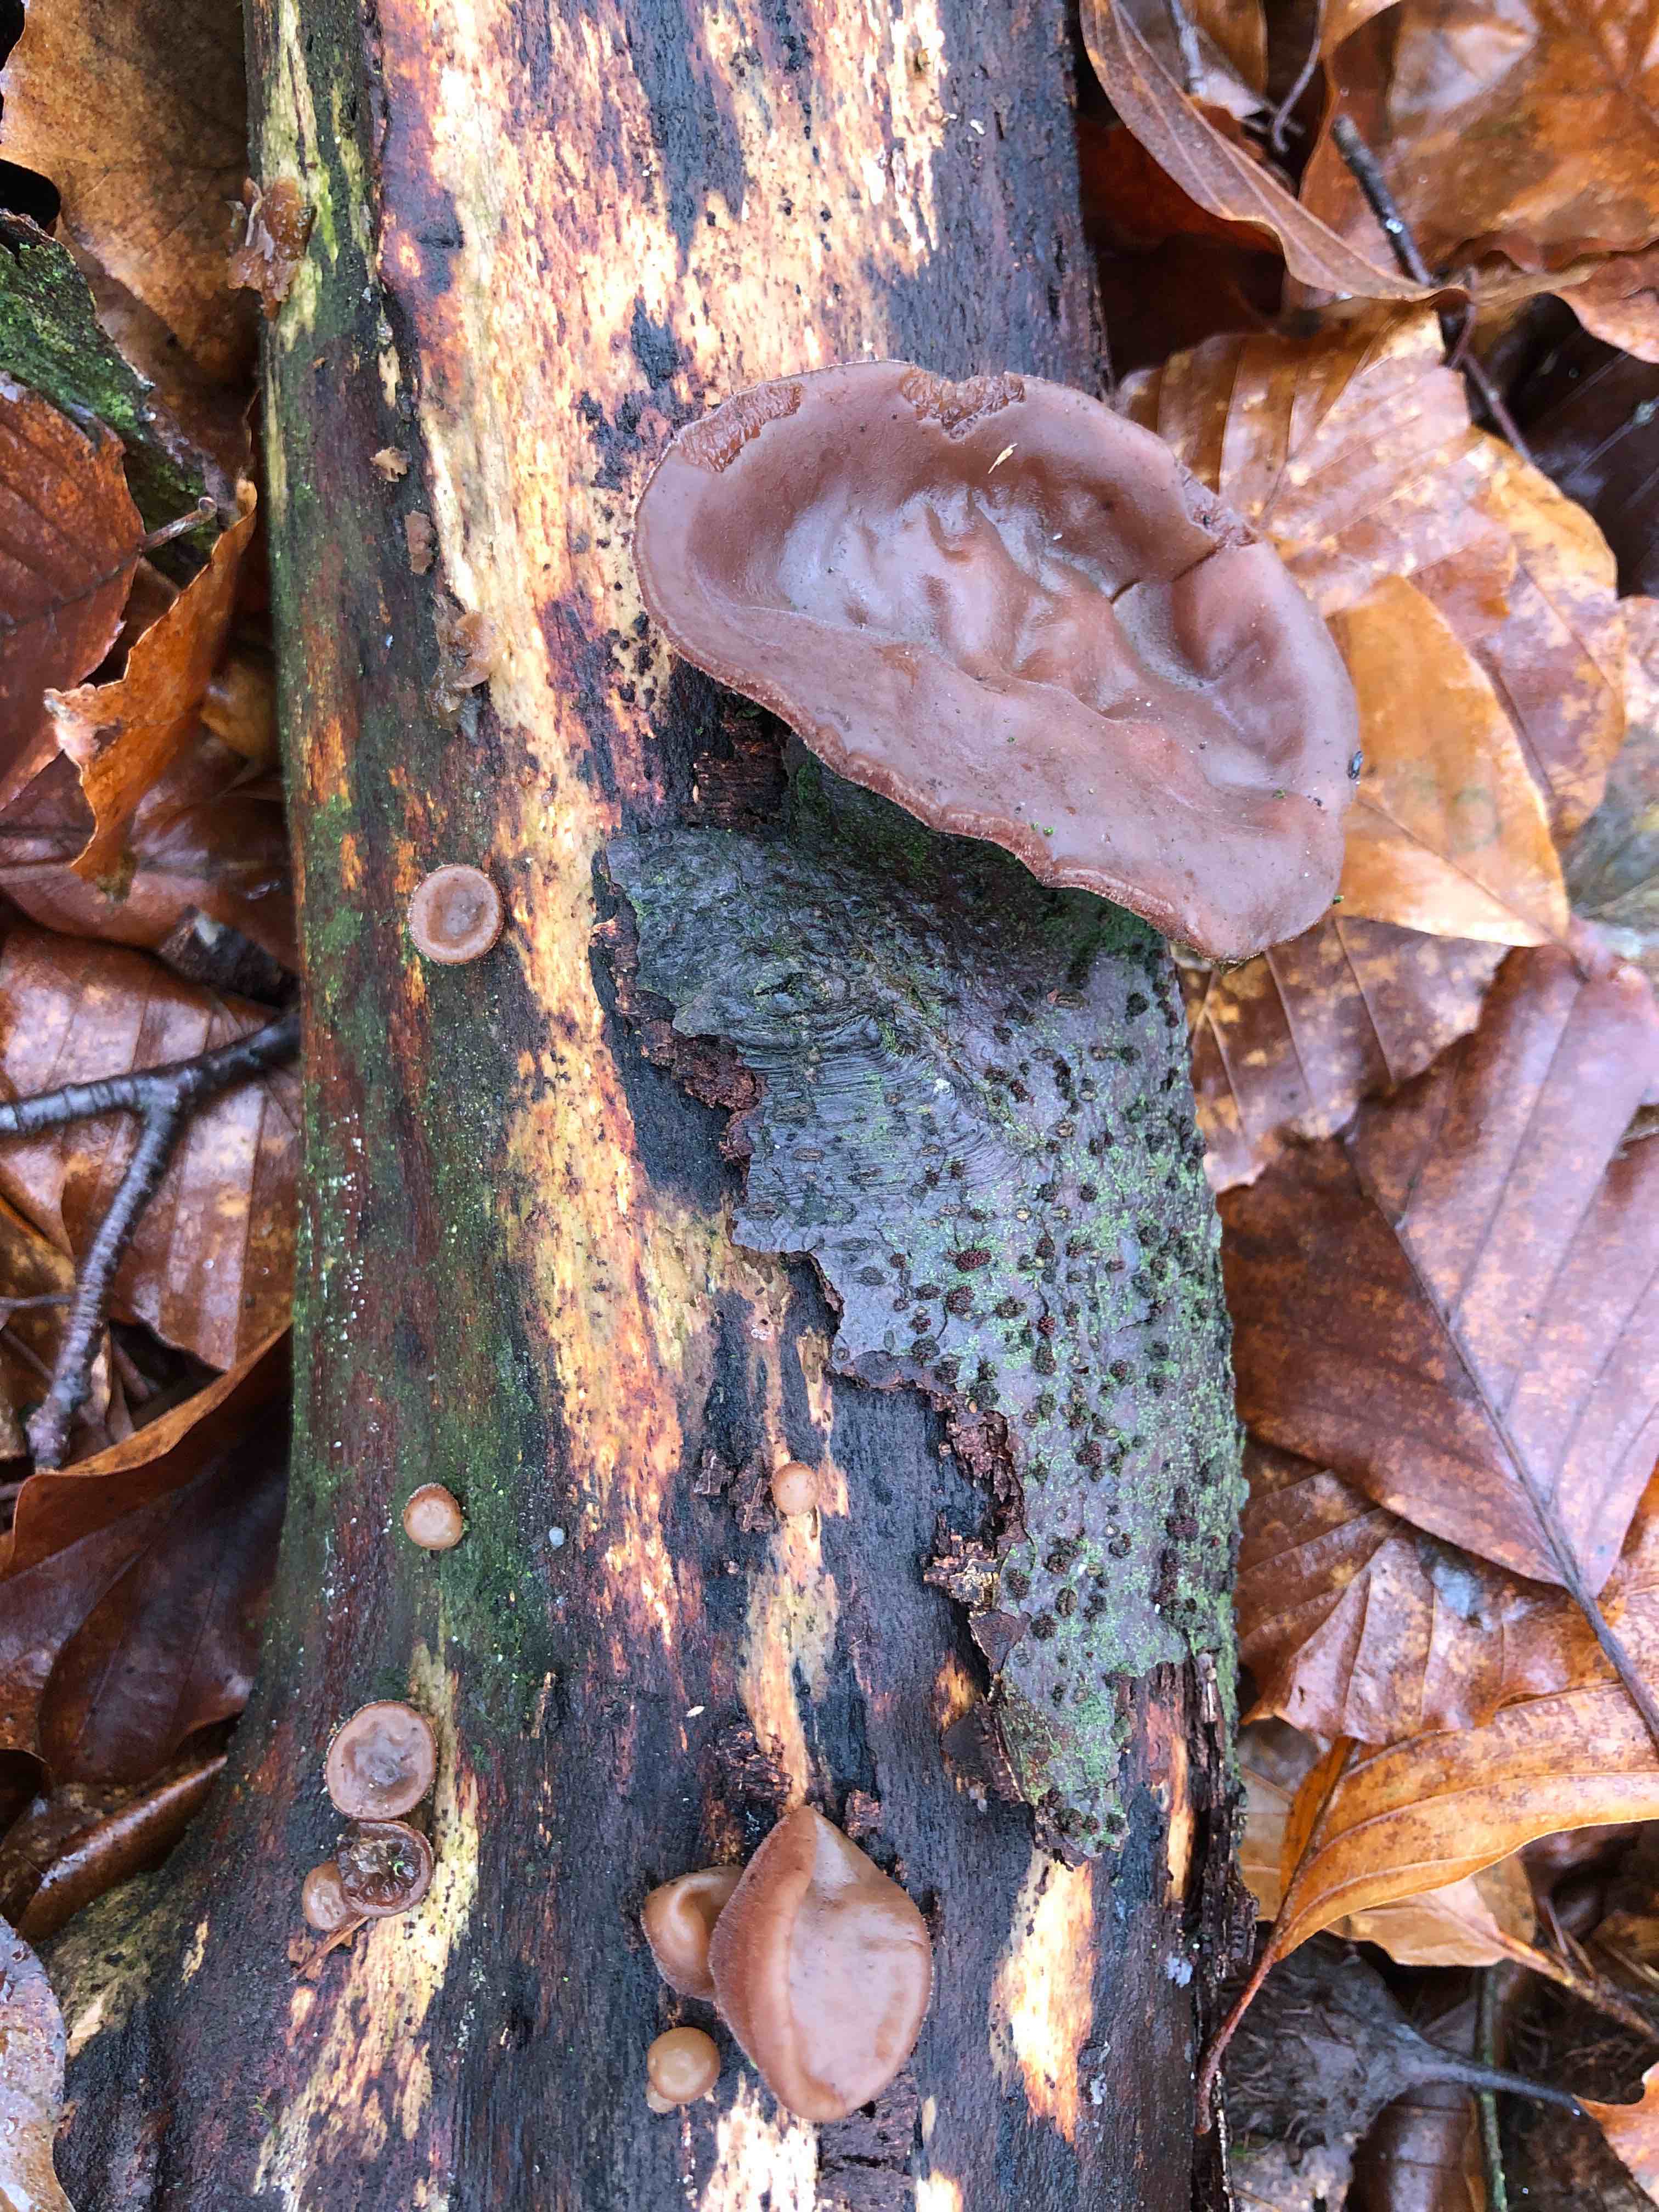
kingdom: Fungi
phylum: Basidiomycota
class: Agaricomycetes
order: Auriculariales
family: Auriculariaceae
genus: Auricularia
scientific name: Auricularia auricula-judae
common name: almindelig judasøre
